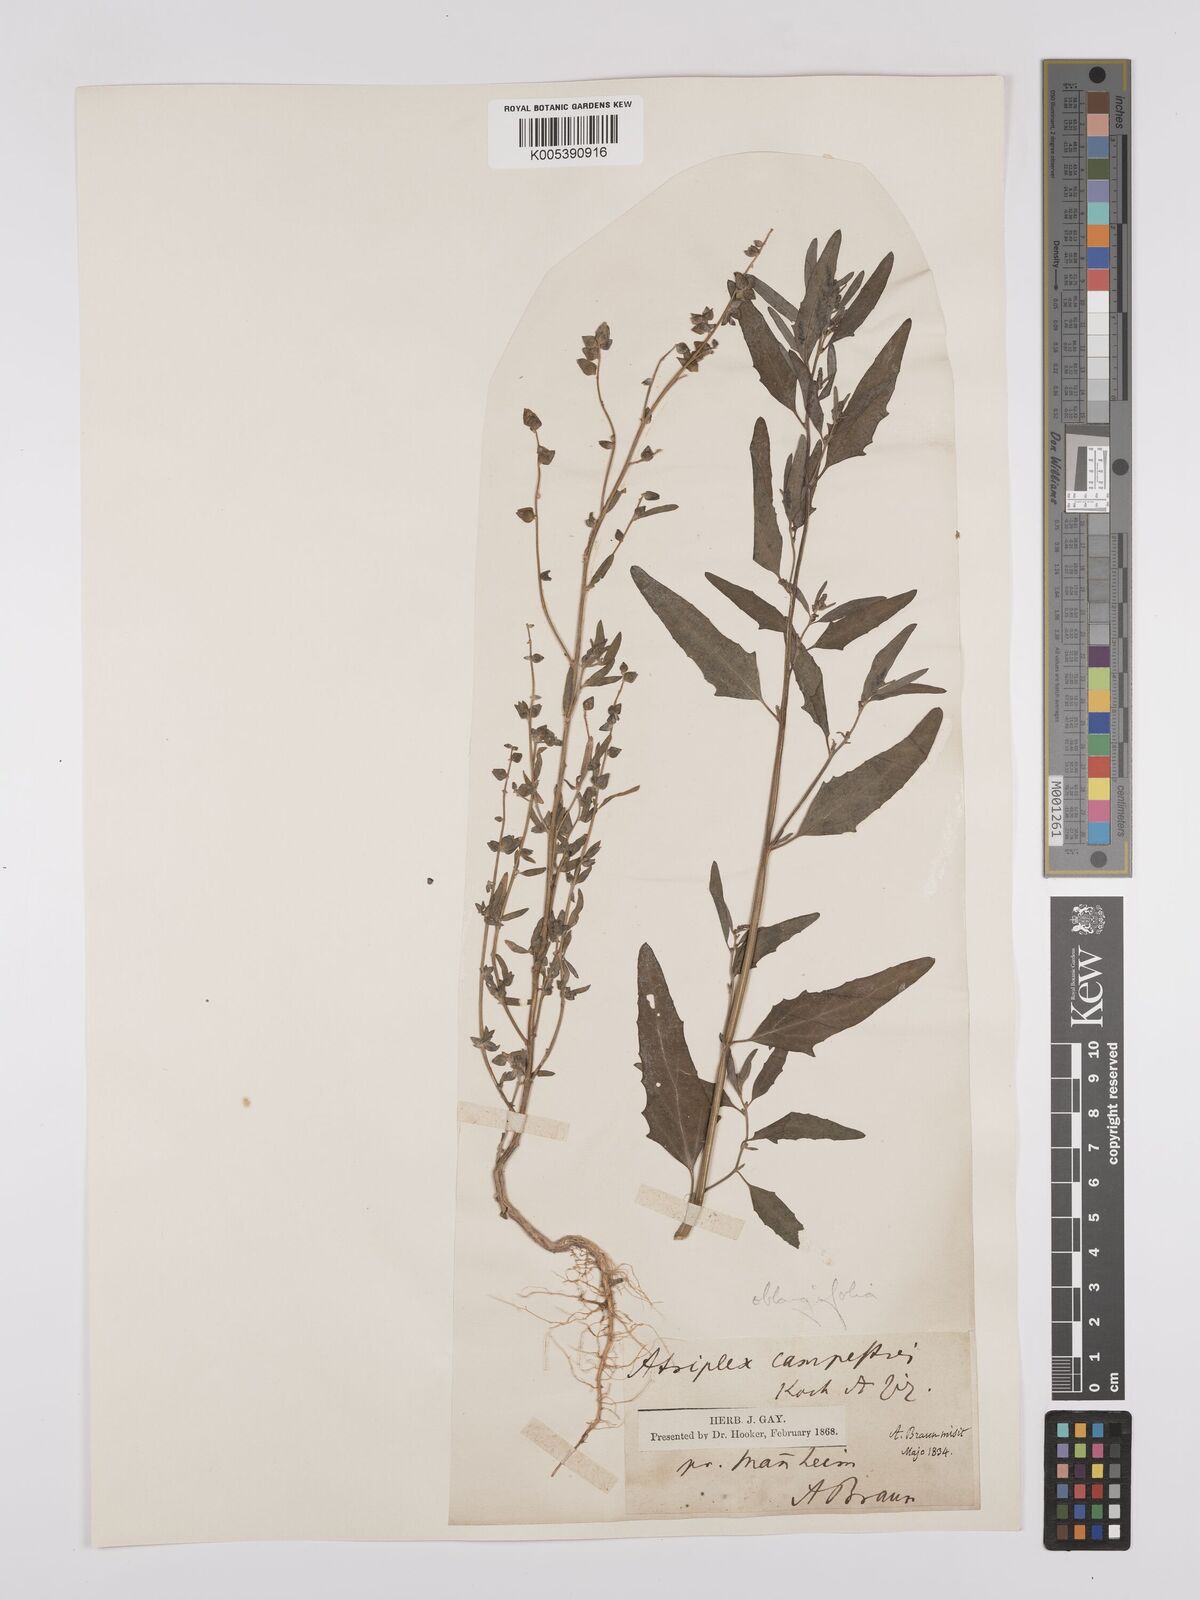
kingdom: Plantae
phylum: Tracheophyta
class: Magnoliopsida
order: Caryophyllales
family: Amaranthaceae
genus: Atriplex
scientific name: Atriplex
